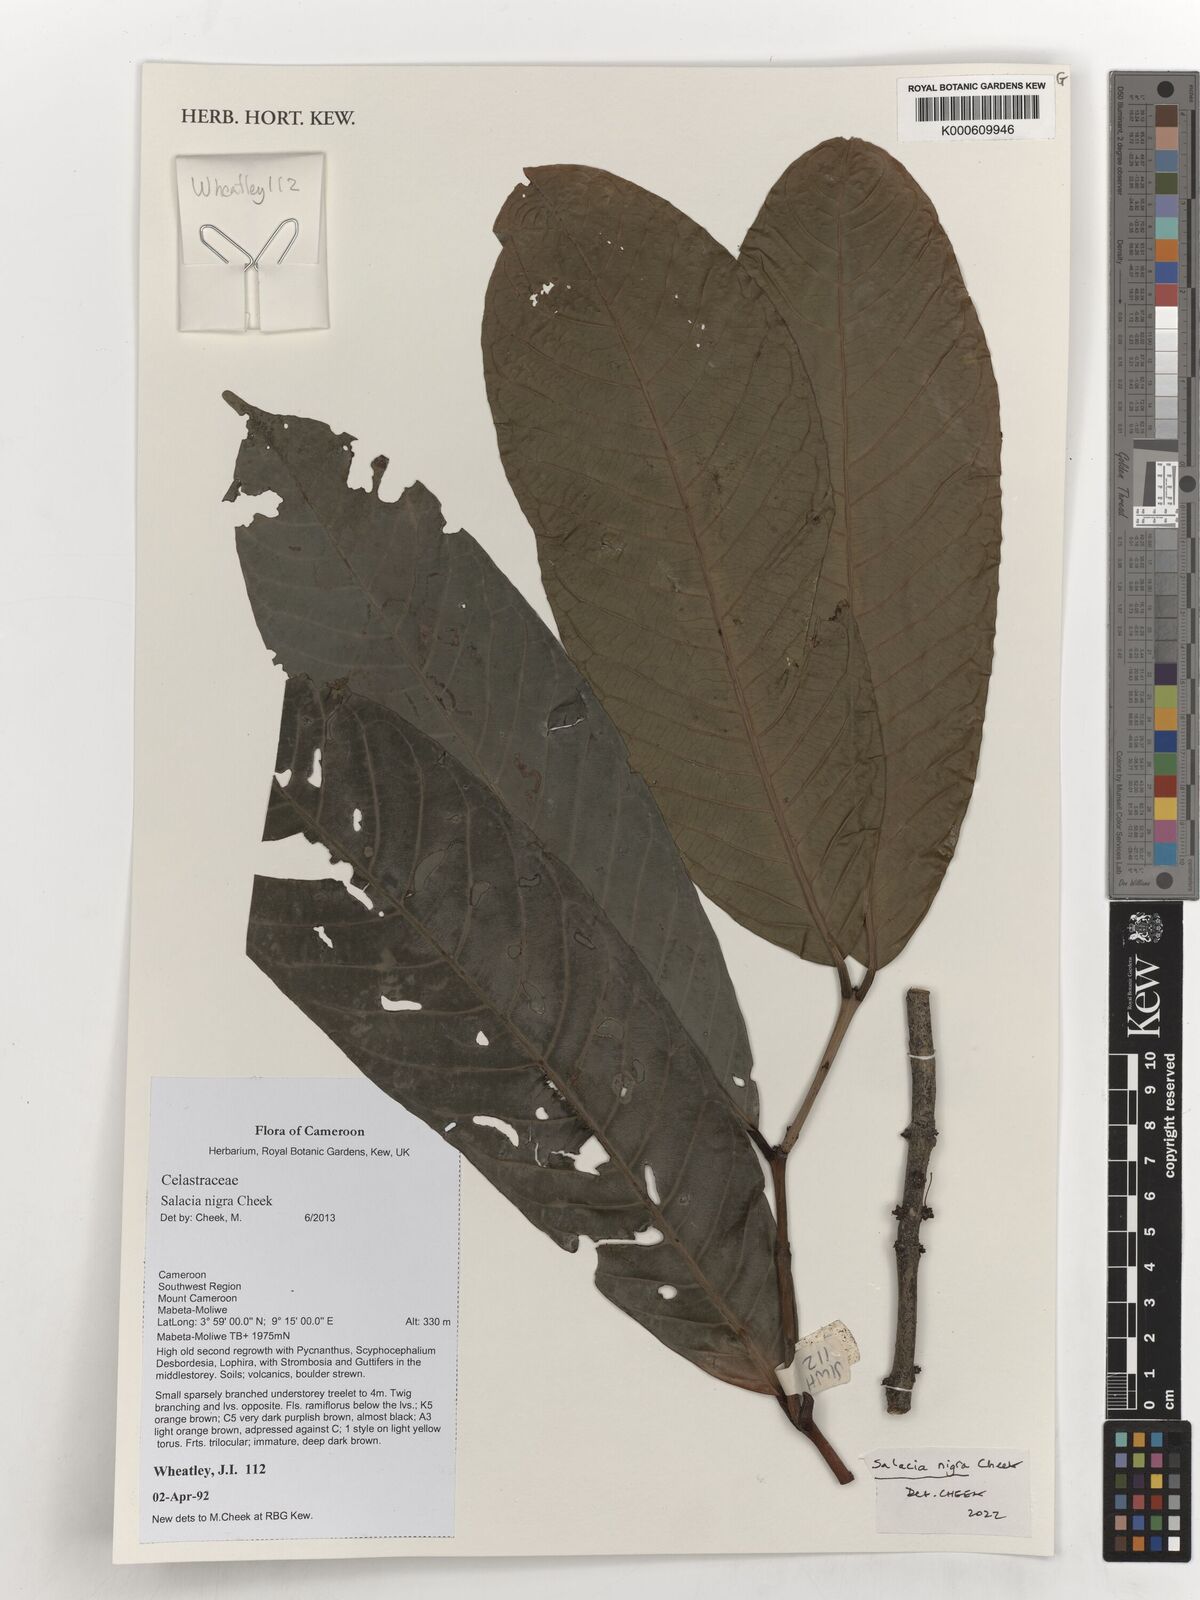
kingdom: Plantae
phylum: Tracheophyta
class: Magnoliopsida
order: Celastrales
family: Celastraceae
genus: Salacia
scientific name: Salacia nigra
